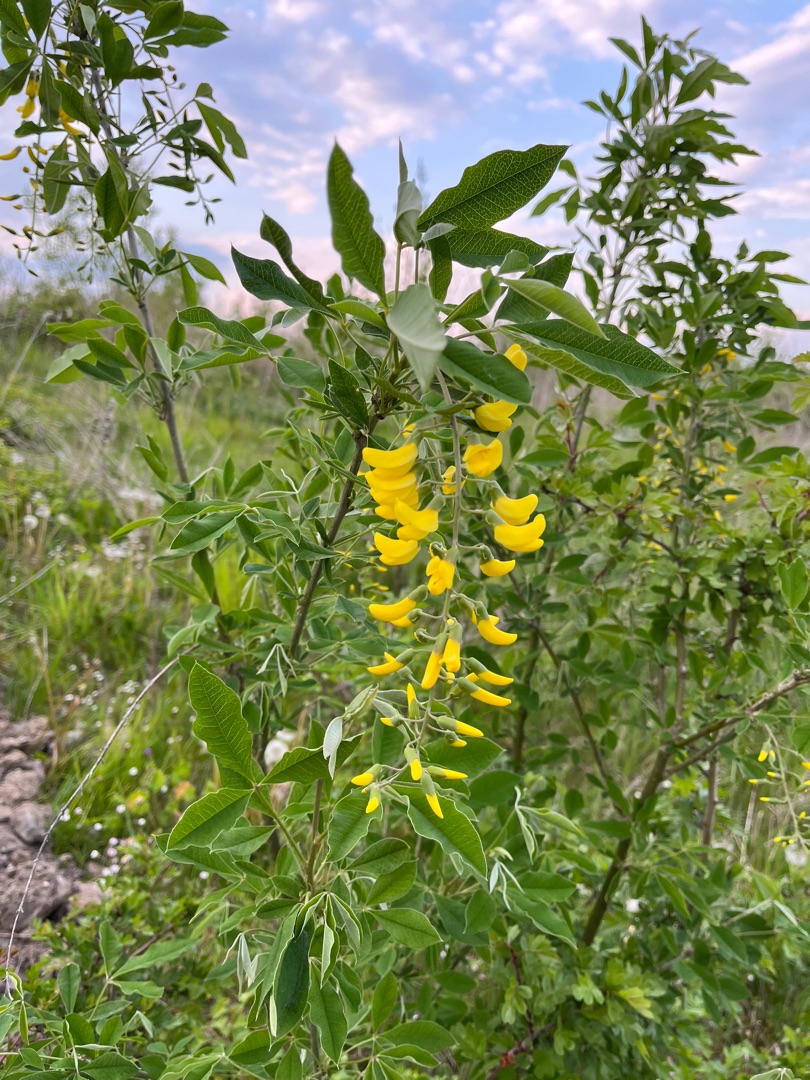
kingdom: Plantae
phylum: Tracheophyta
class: Magnoliopsida
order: Fabales
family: Fabaceae
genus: Laburnum
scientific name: Laburnum anagyroides
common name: Guldregn
